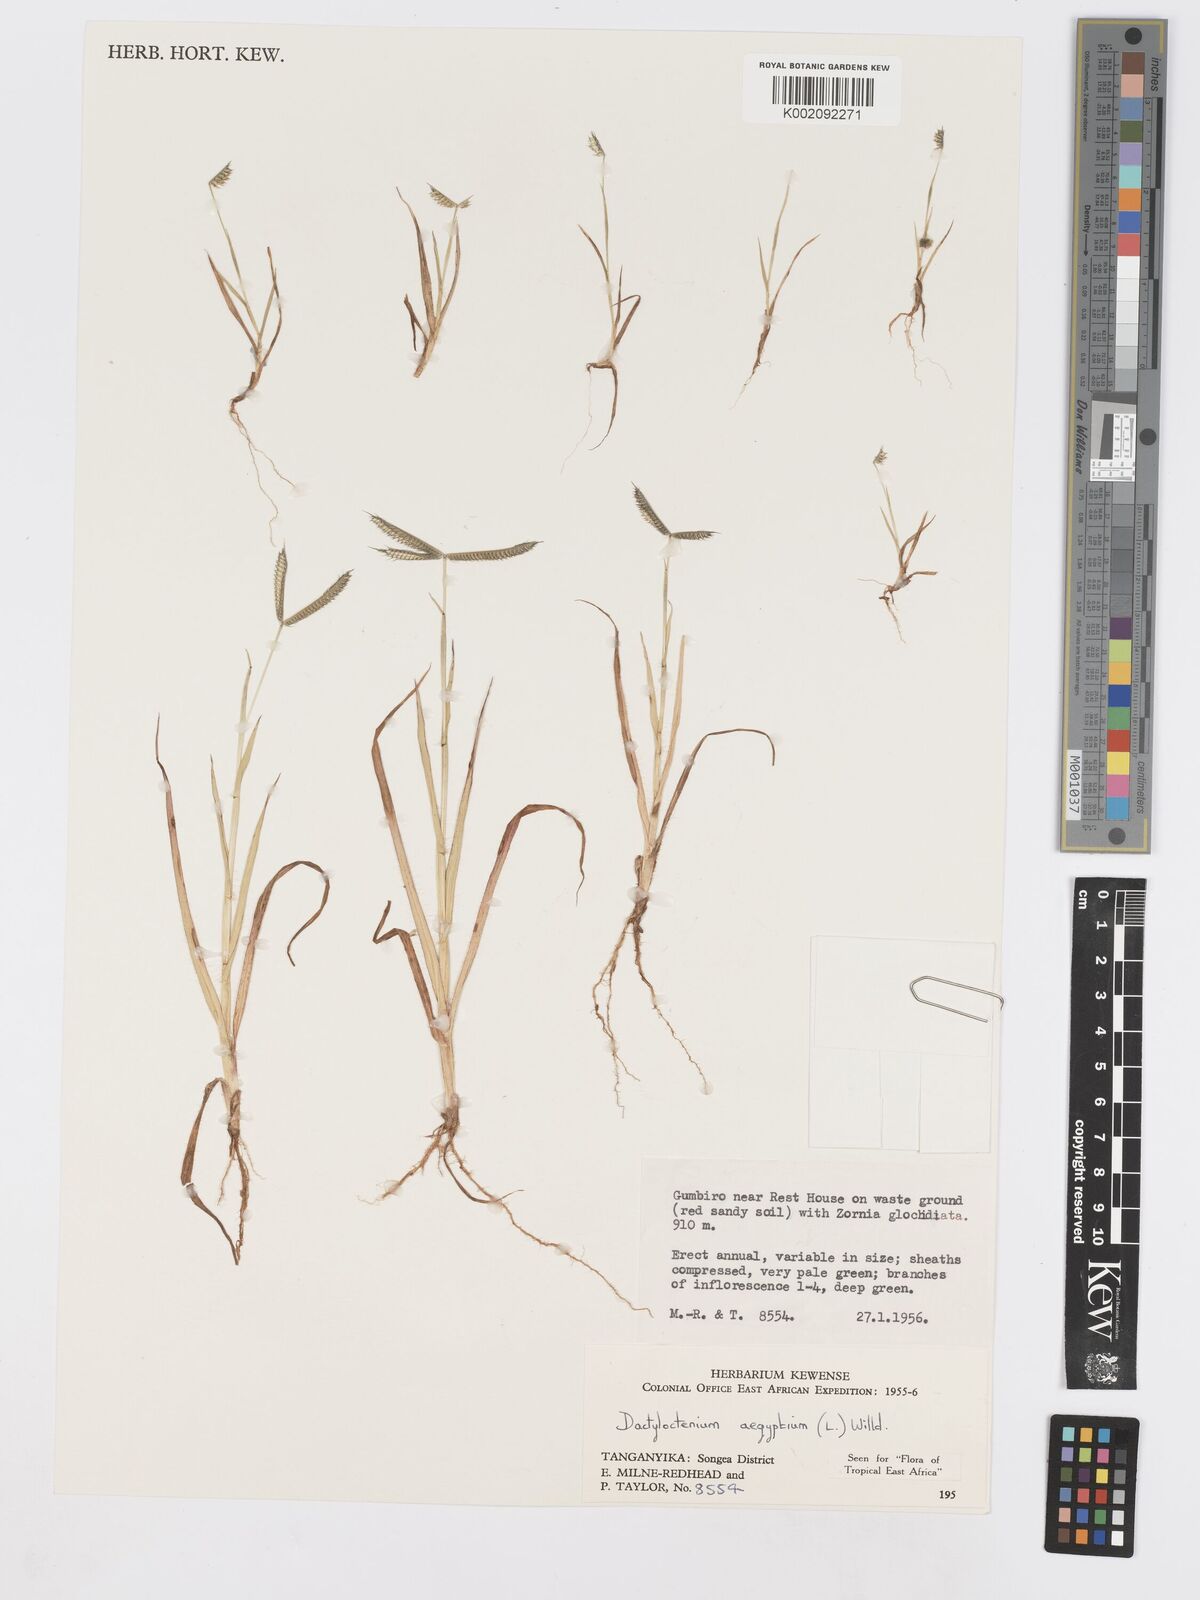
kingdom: Plantae
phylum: Tracheophyta
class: Liliopsida
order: Poales
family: Poaceae
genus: Dactyloctenium
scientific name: Dactyloctenium aegyptium
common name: Egyptian grass
